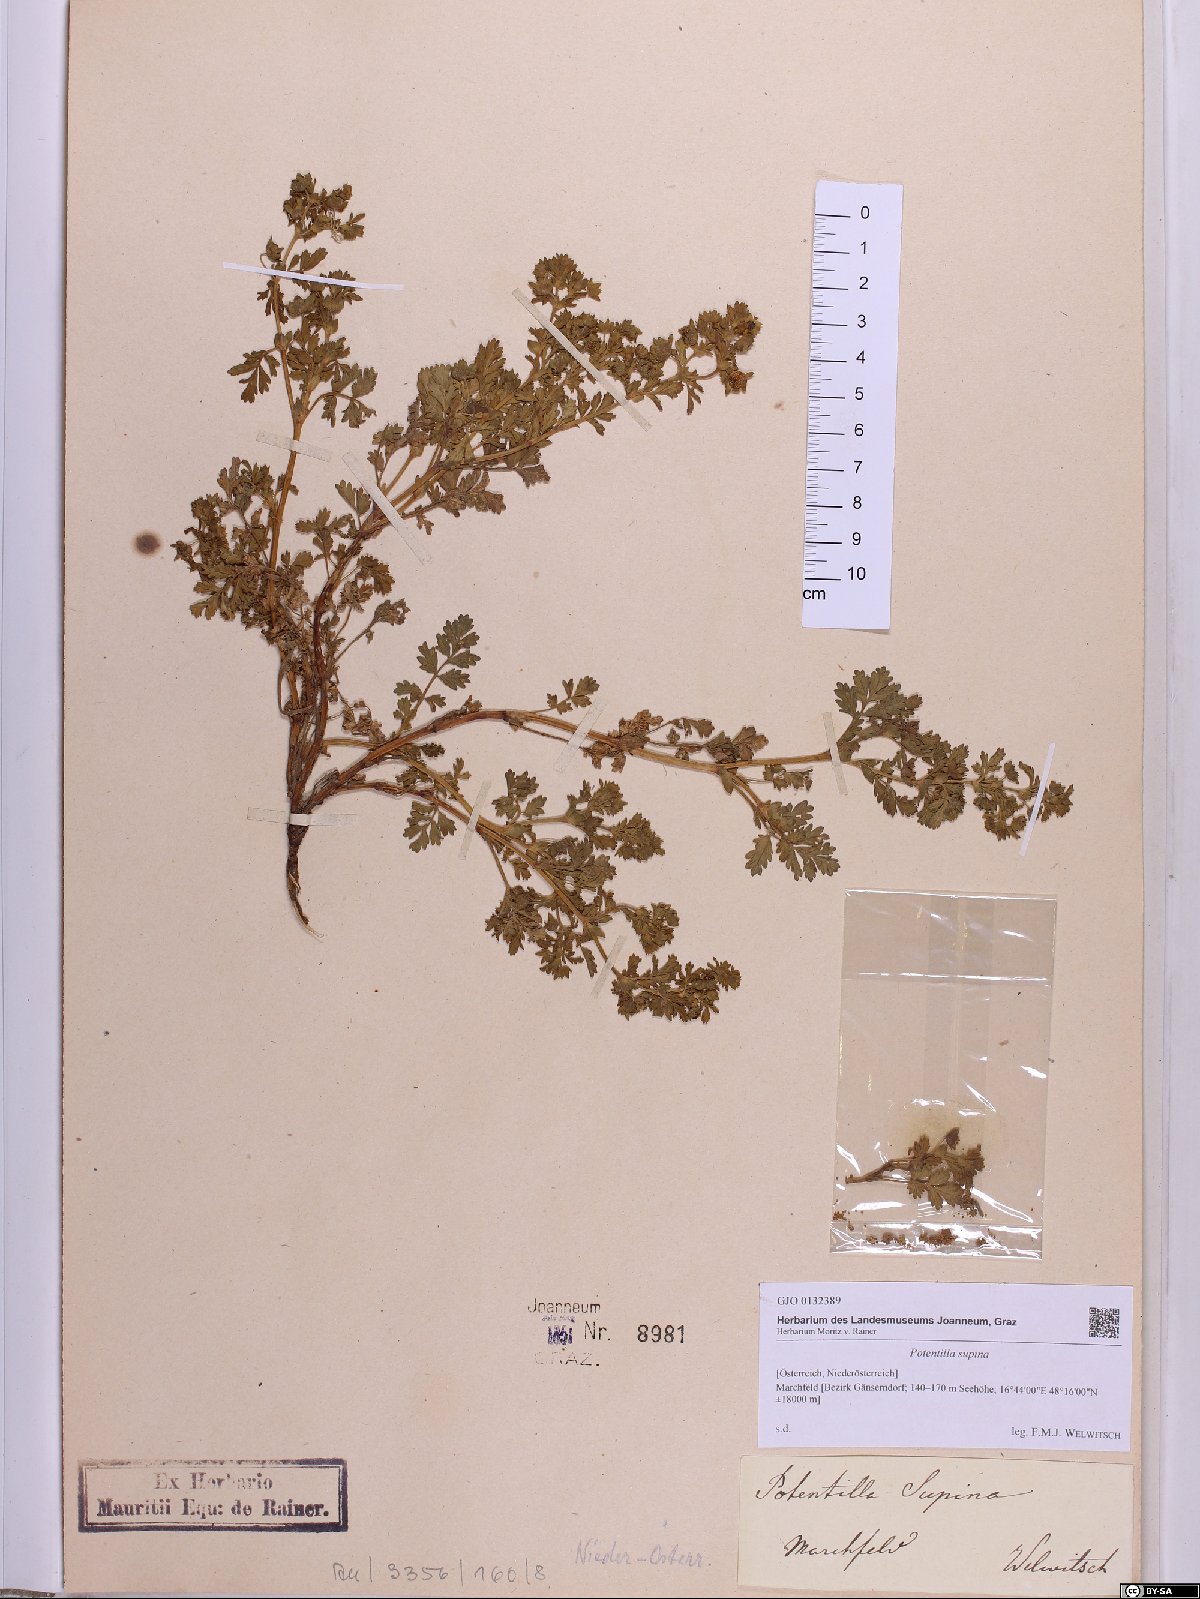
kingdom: Plantae
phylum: Tracheophyta
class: Magnoliopsida
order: Rosales
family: Rosaceae
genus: Potentilla
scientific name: Potentilla supina
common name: Prostrate cinquefoil
